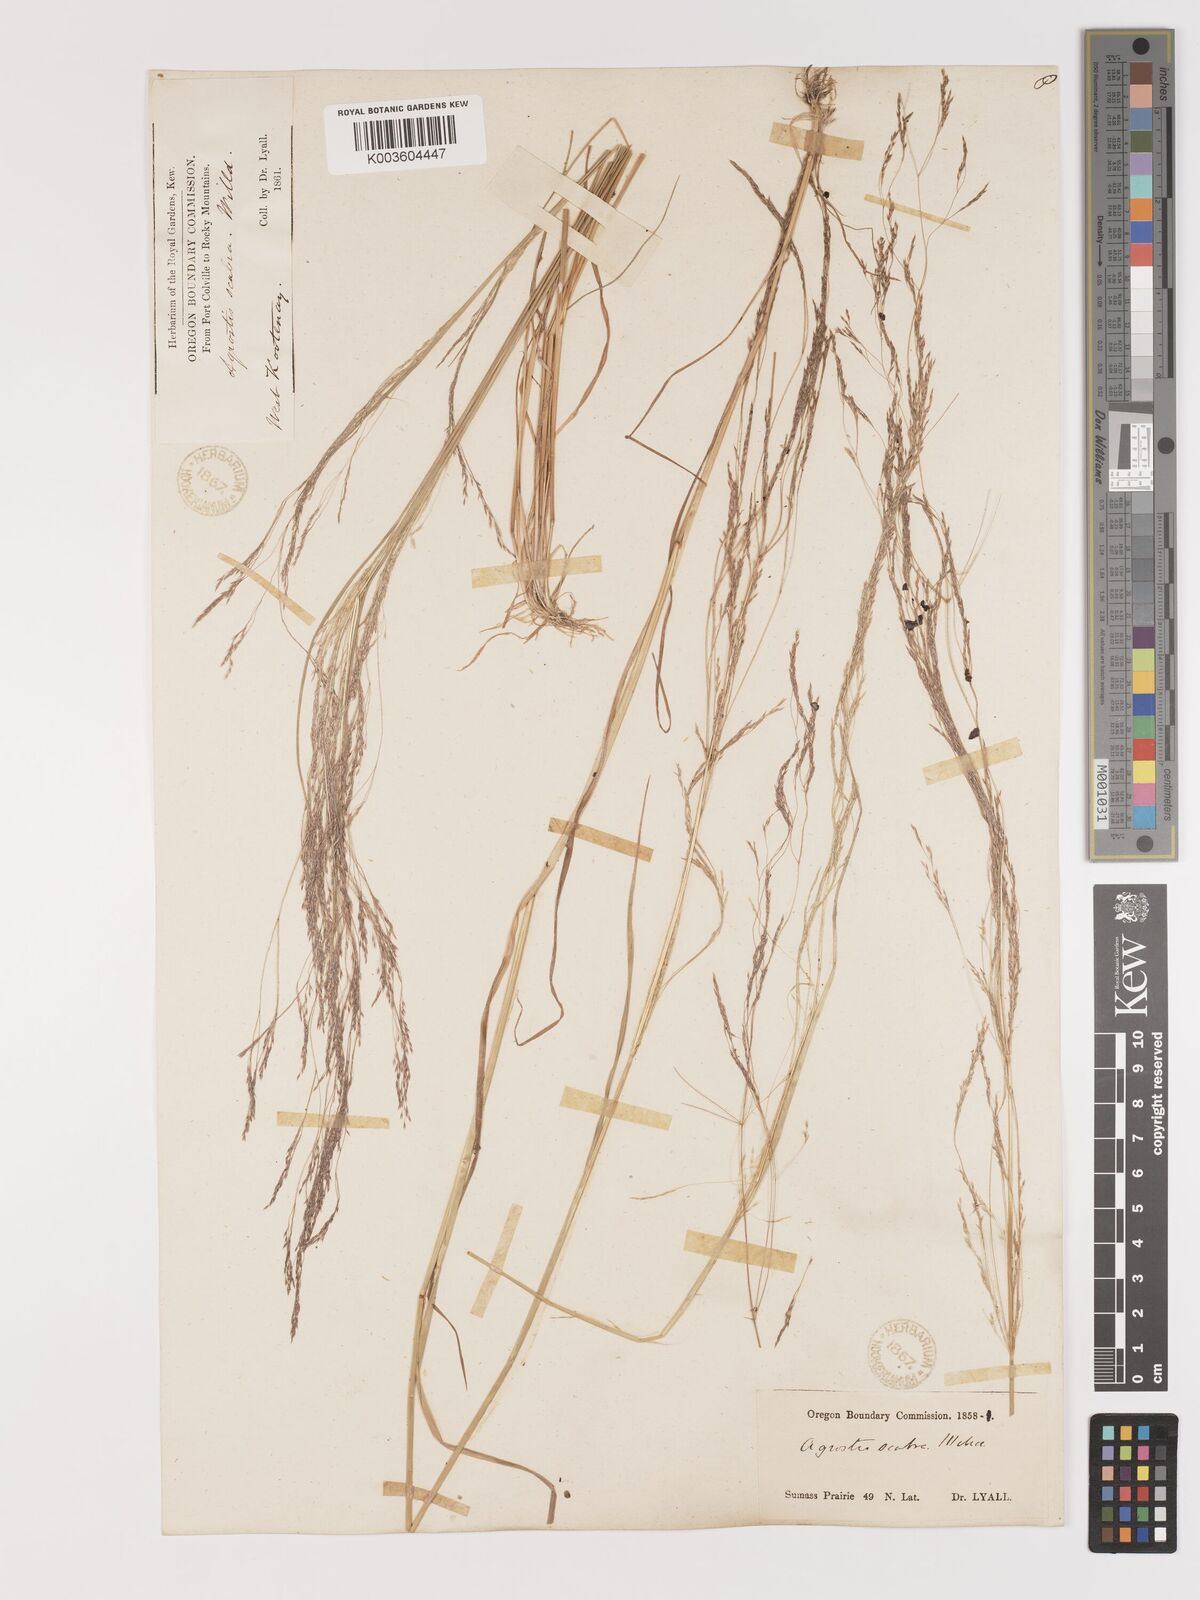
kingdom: Plantae
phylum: Tracheophyta
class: Liliopsida
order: Poales
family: Poaceae
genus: Agrostis
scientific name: Agrostis hyemalis
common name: Small bent
